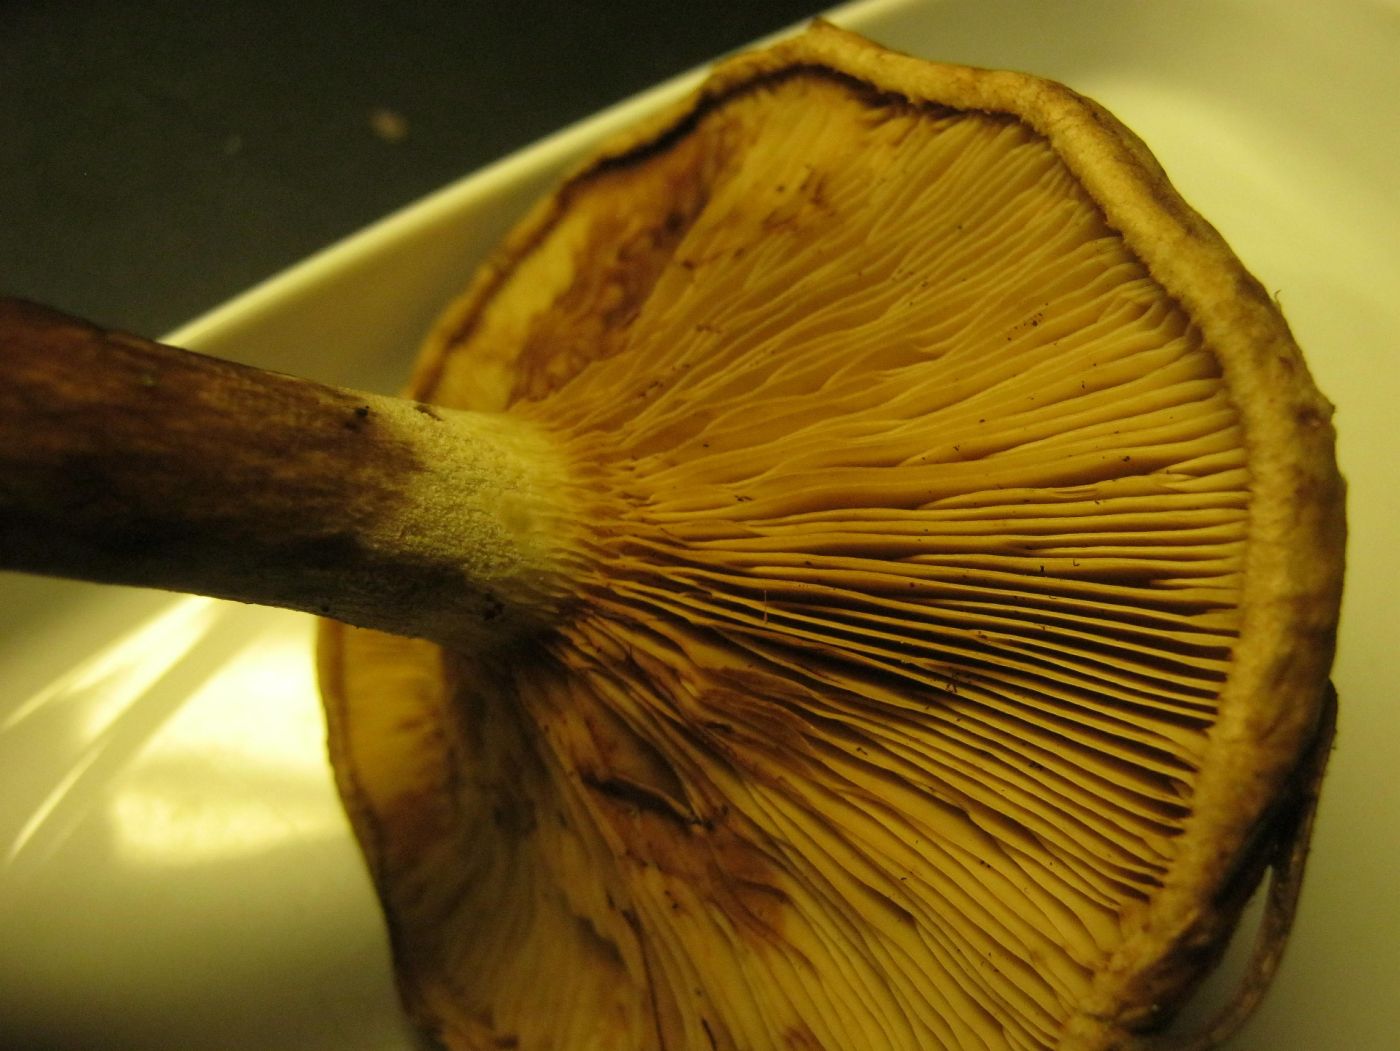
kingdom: Fungi
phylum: Basidiomycota
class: Agaricomycetes
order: Boletales
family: Paxillaceae
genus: Paxillus
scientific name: Paxillus involutus
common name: almindelig netbladhat
